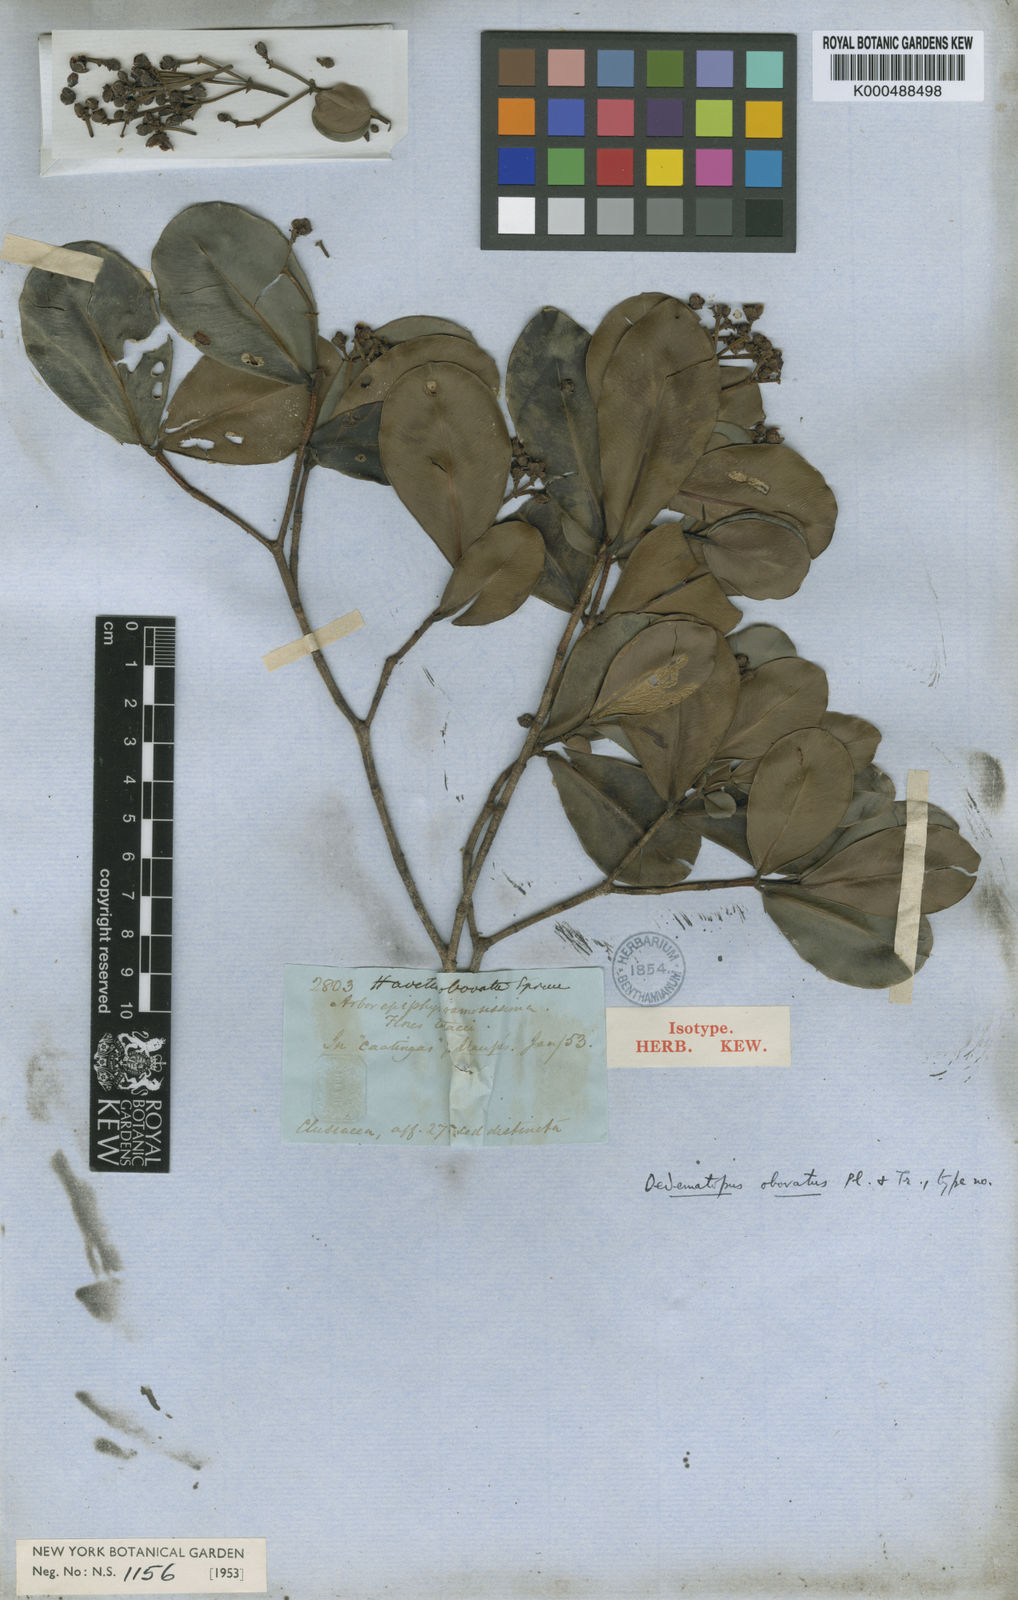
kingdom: Plantae
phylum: Tracheophyta
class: Magnoliopsida
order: Malpighiales
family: Clusiaceae
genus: Clusia
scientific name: Clusia obovata
